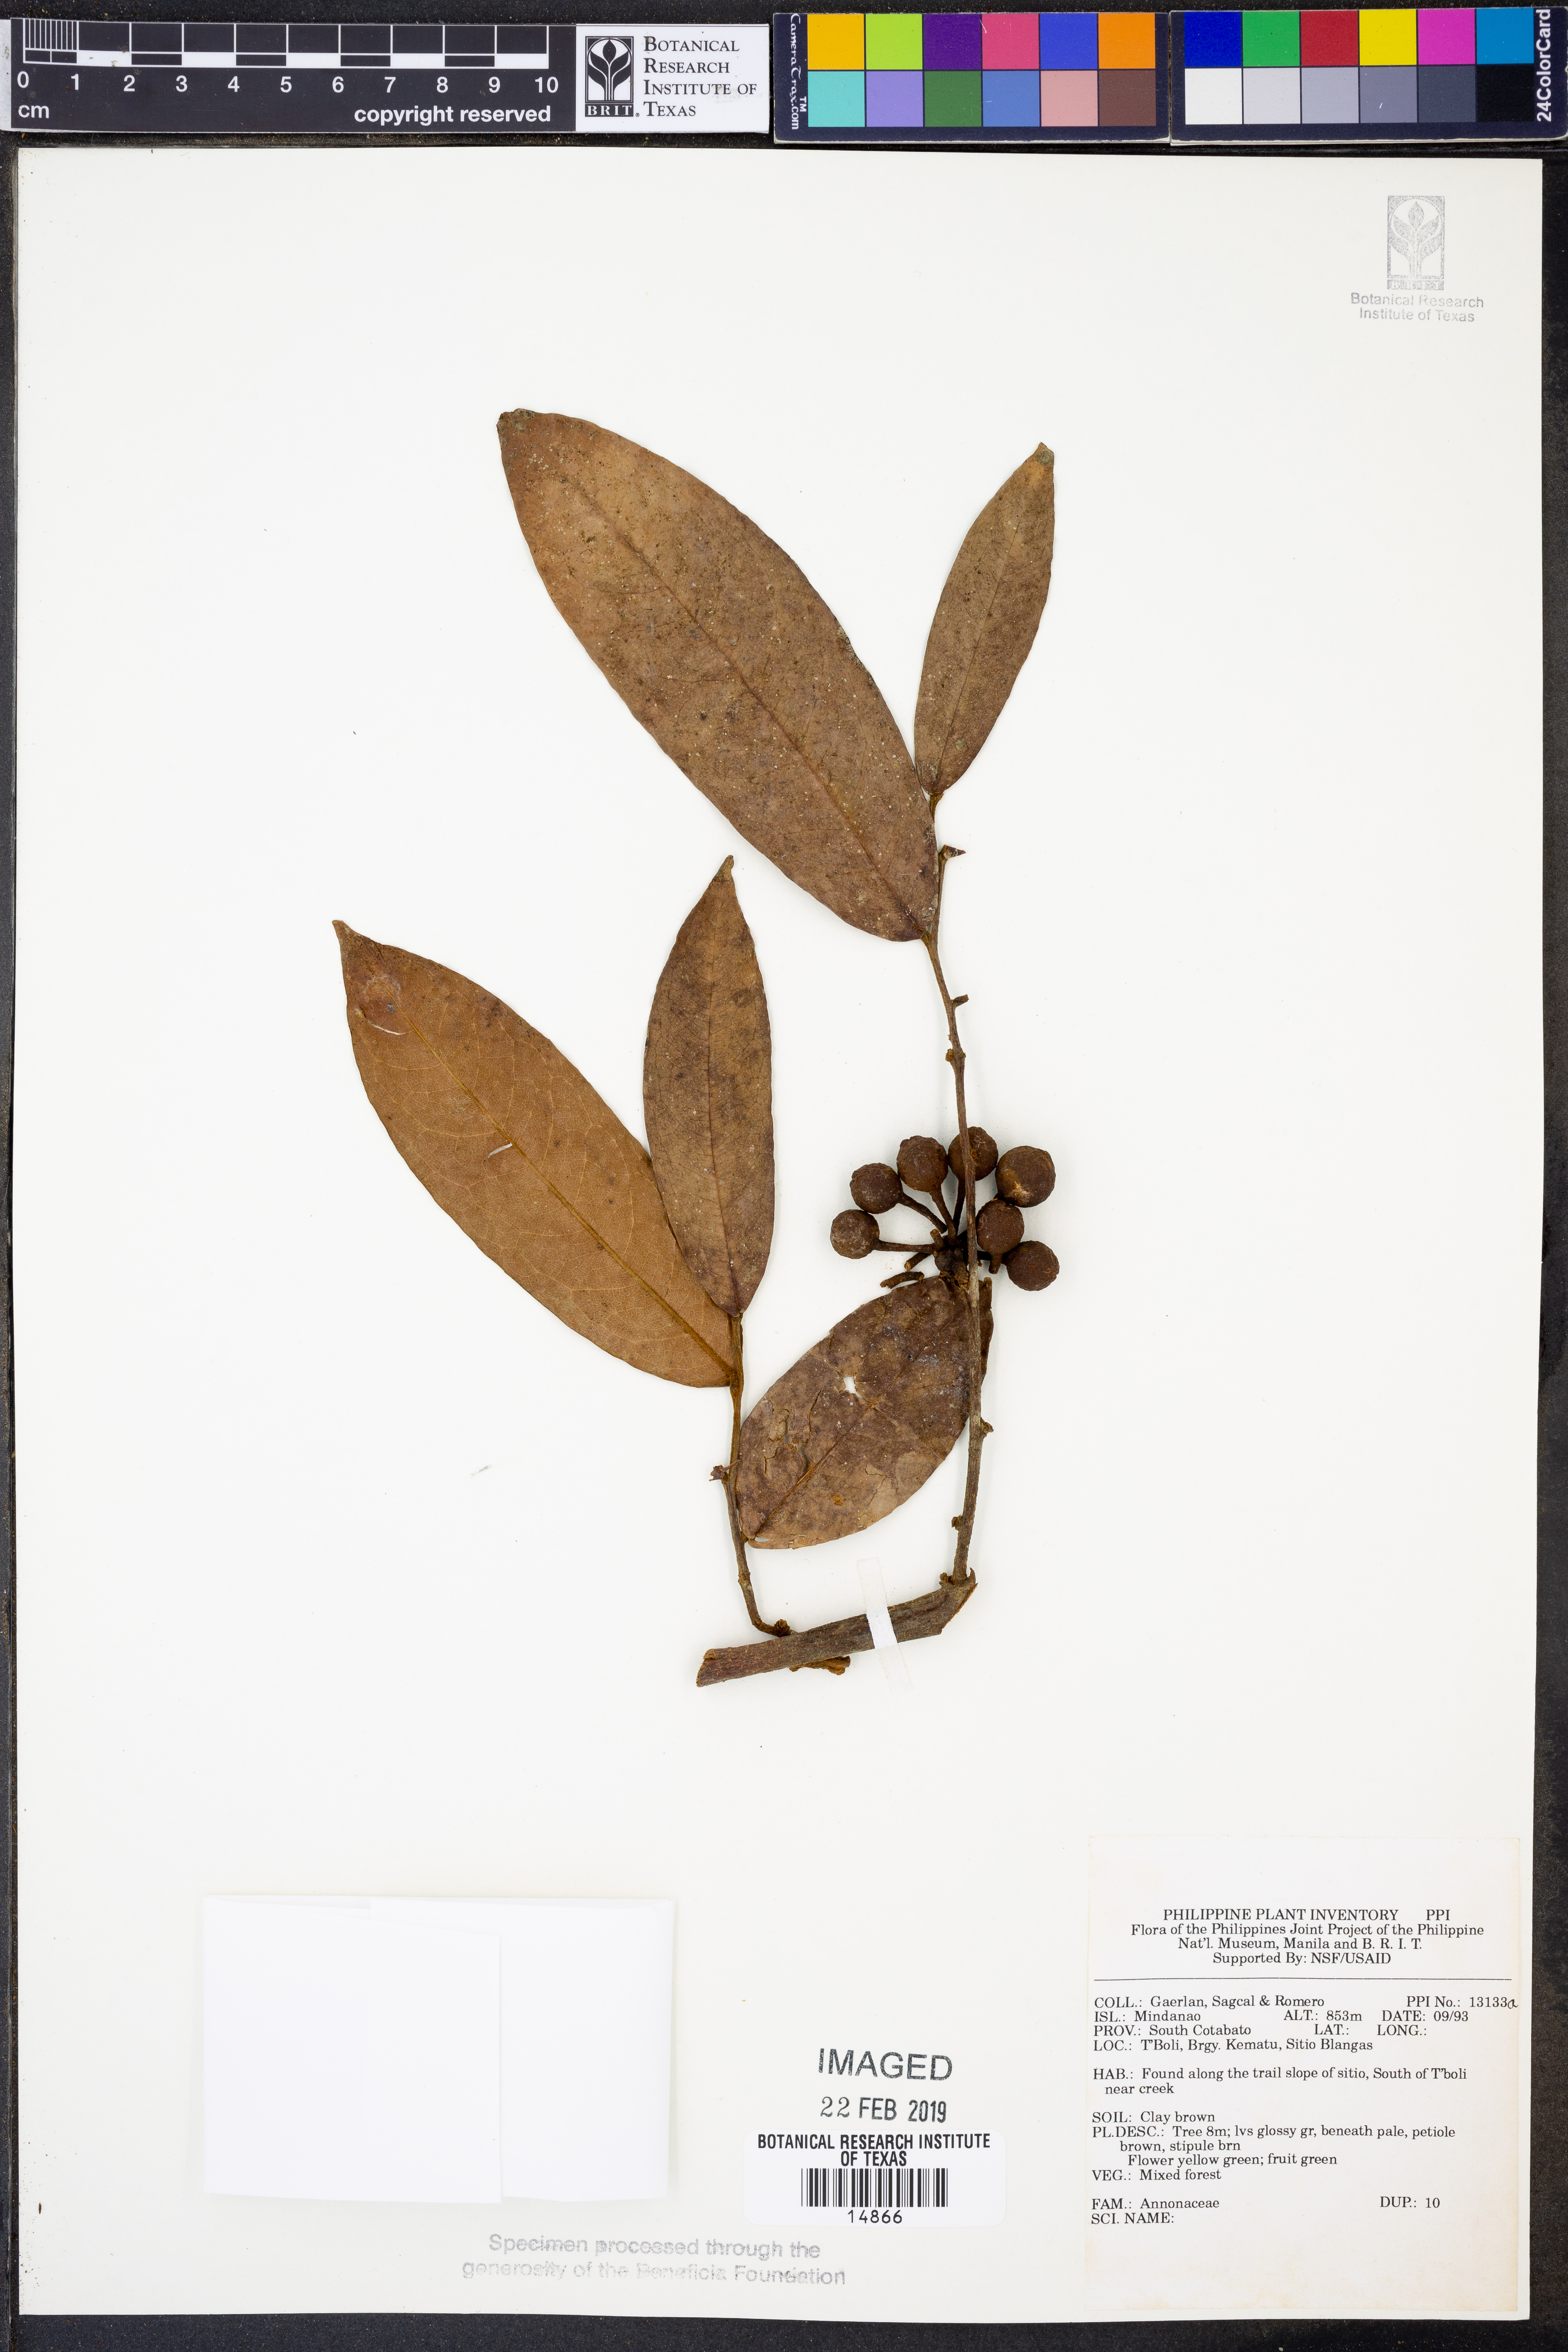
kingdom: Plantae
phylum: Tracheophyta
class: Magnoliopsida
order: Magnoliales
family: Annonaceae
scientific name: Annonaceae
